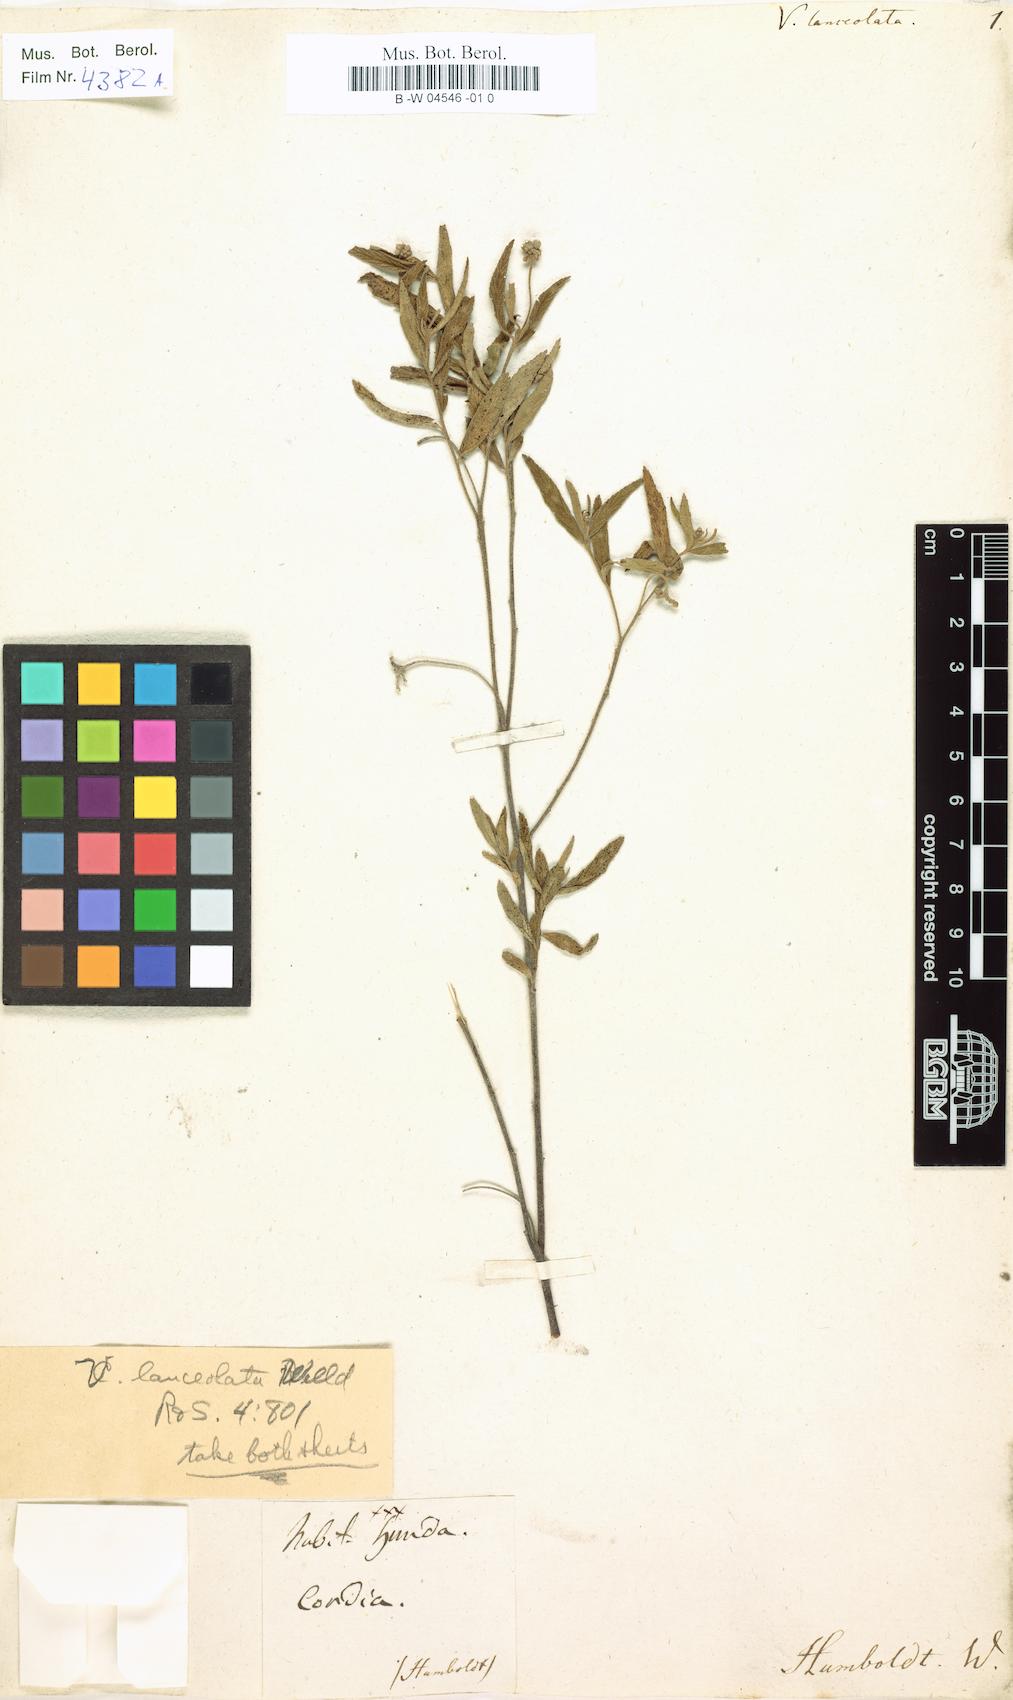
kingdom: Plantae
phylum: Tracheophyta
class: Magnoliopsida
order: Boraginales
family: Cordiaceae
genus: Varronia
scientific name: Varronia polycephala
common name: Black-sage
